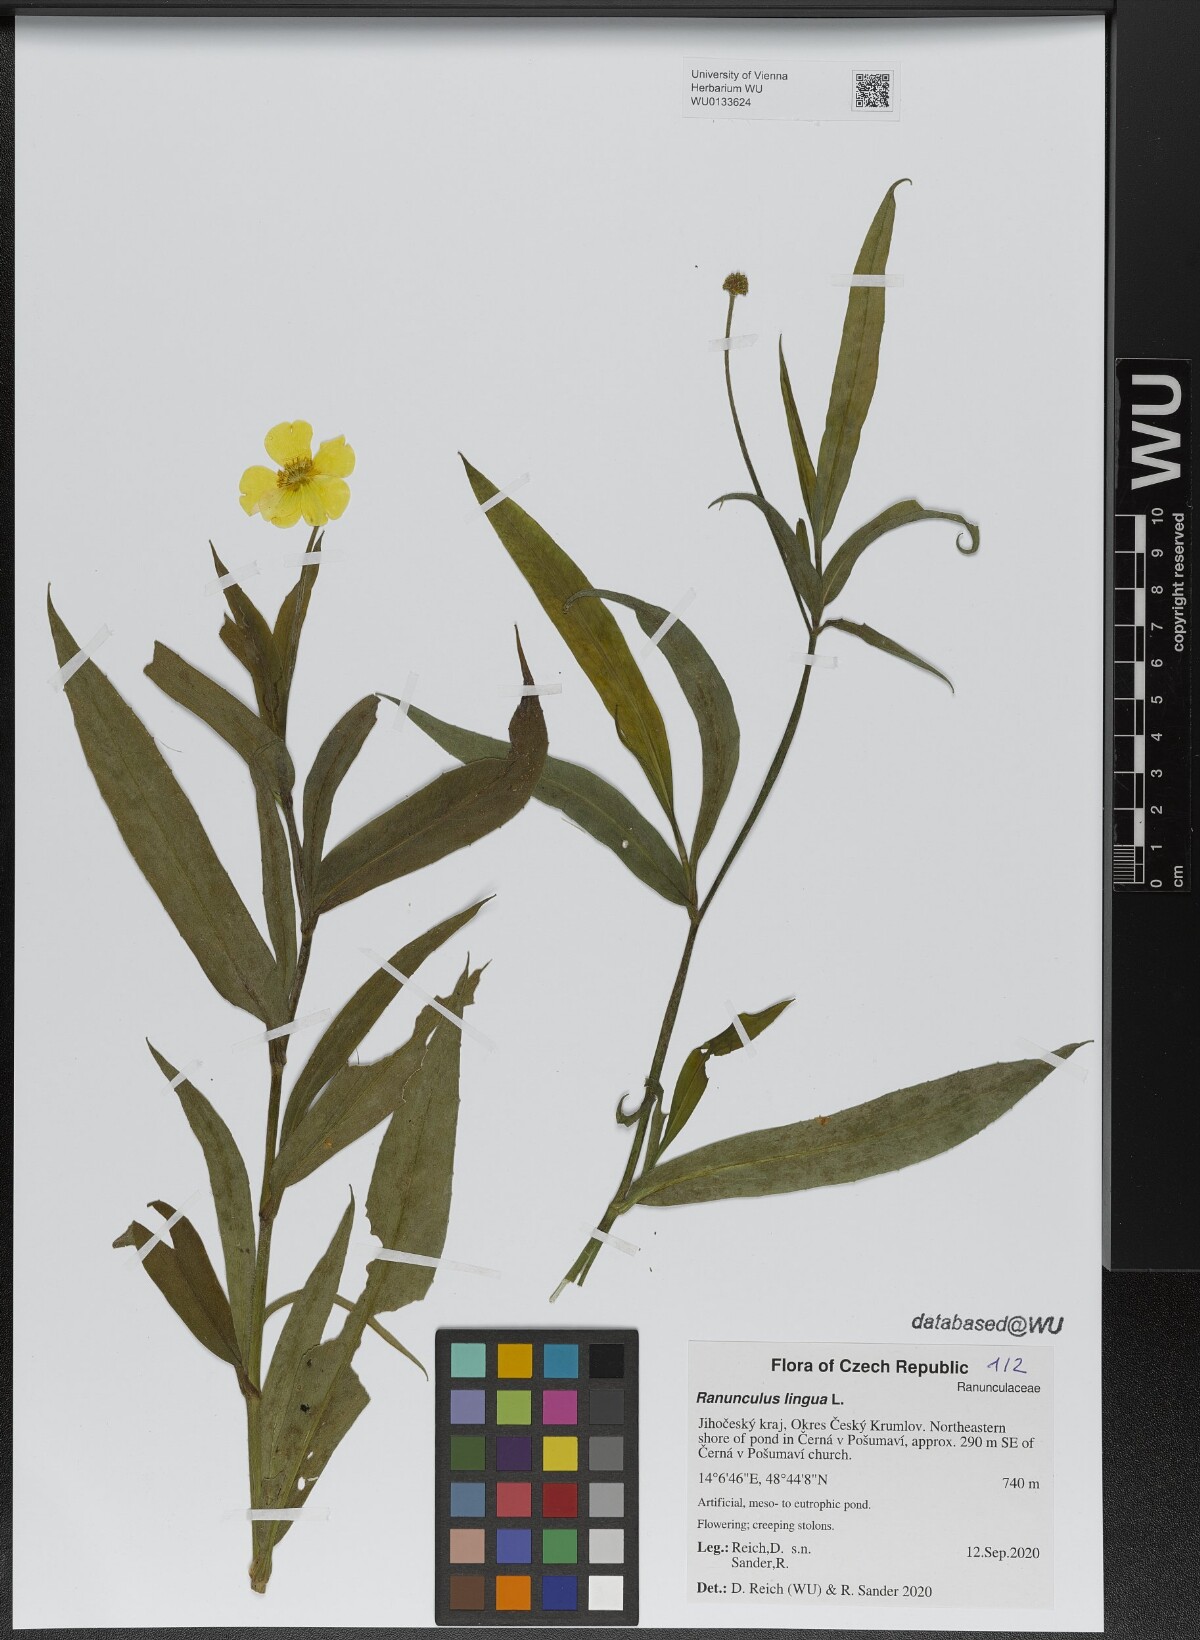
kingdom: Plantae
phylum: Tracheophyta
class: Magnoliopsida
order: Ranunculales
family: Ranunculaceae
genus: Ranunculus
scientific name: Ranunculus lingua
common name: Greater spearwort
